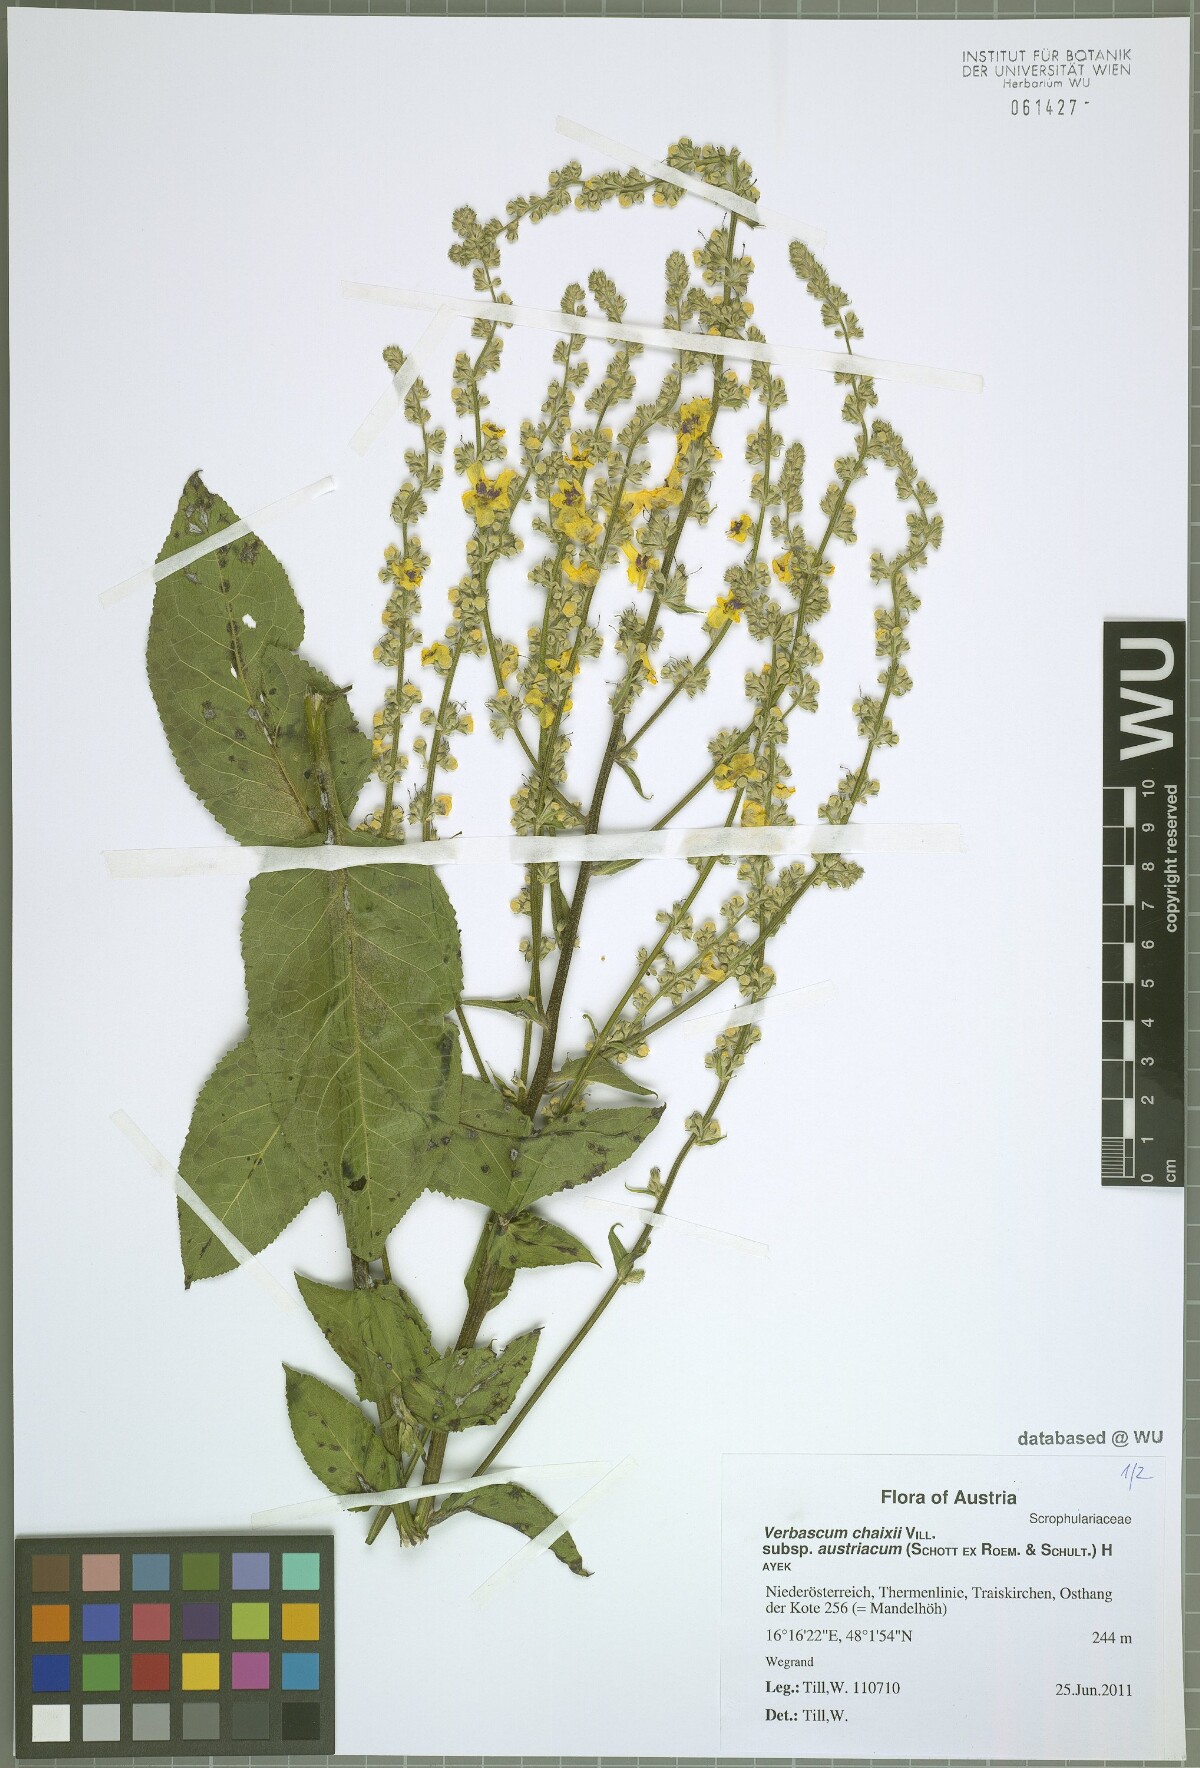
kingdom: Plantae
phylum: Tracheophyta
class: Magnoliopsida
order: Lamiales
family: Scrophulariaceae
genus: Verbascum
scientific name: Verbascum chaixii
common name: Nettle-leaved mullein
